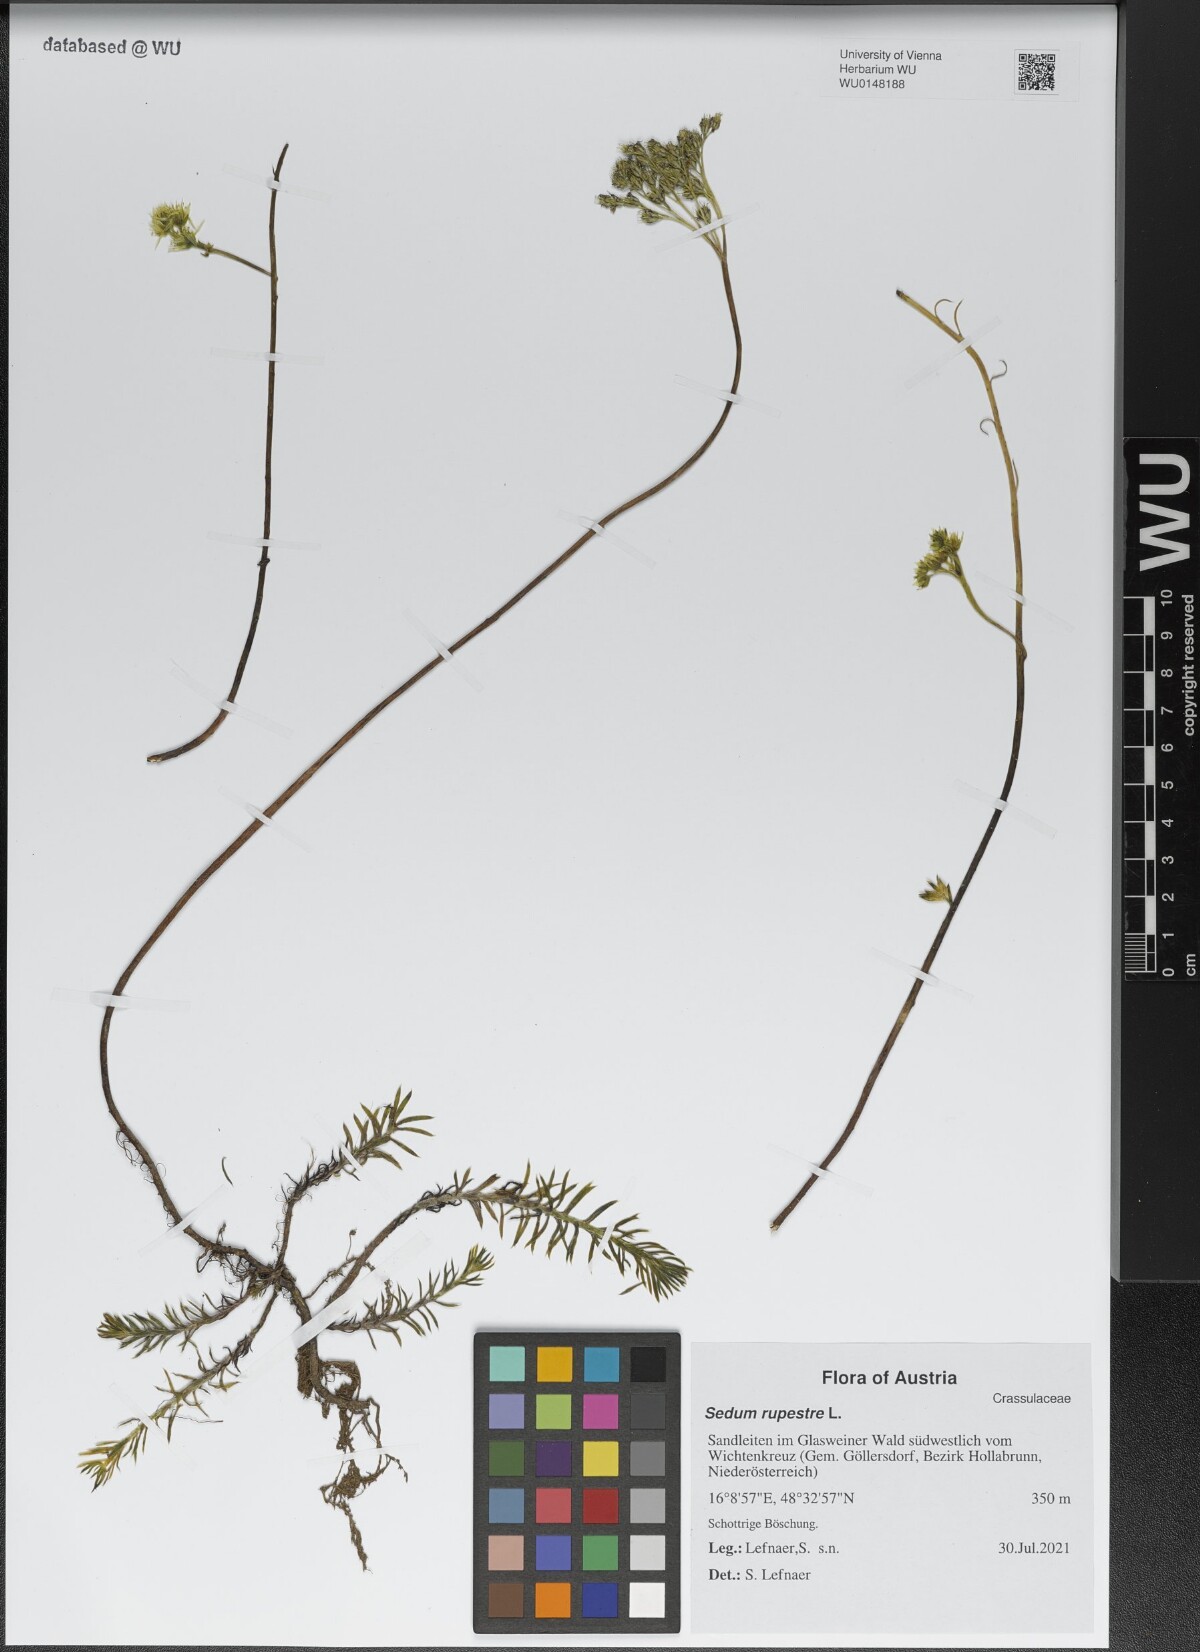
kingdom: Plantae
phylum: Tracheophyta
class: Magnoliopsida
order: Saxifragales
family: Crassulaceae
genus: Petrosedum
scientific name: Petrosedum rupestre
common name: Jenny's stonecrop
